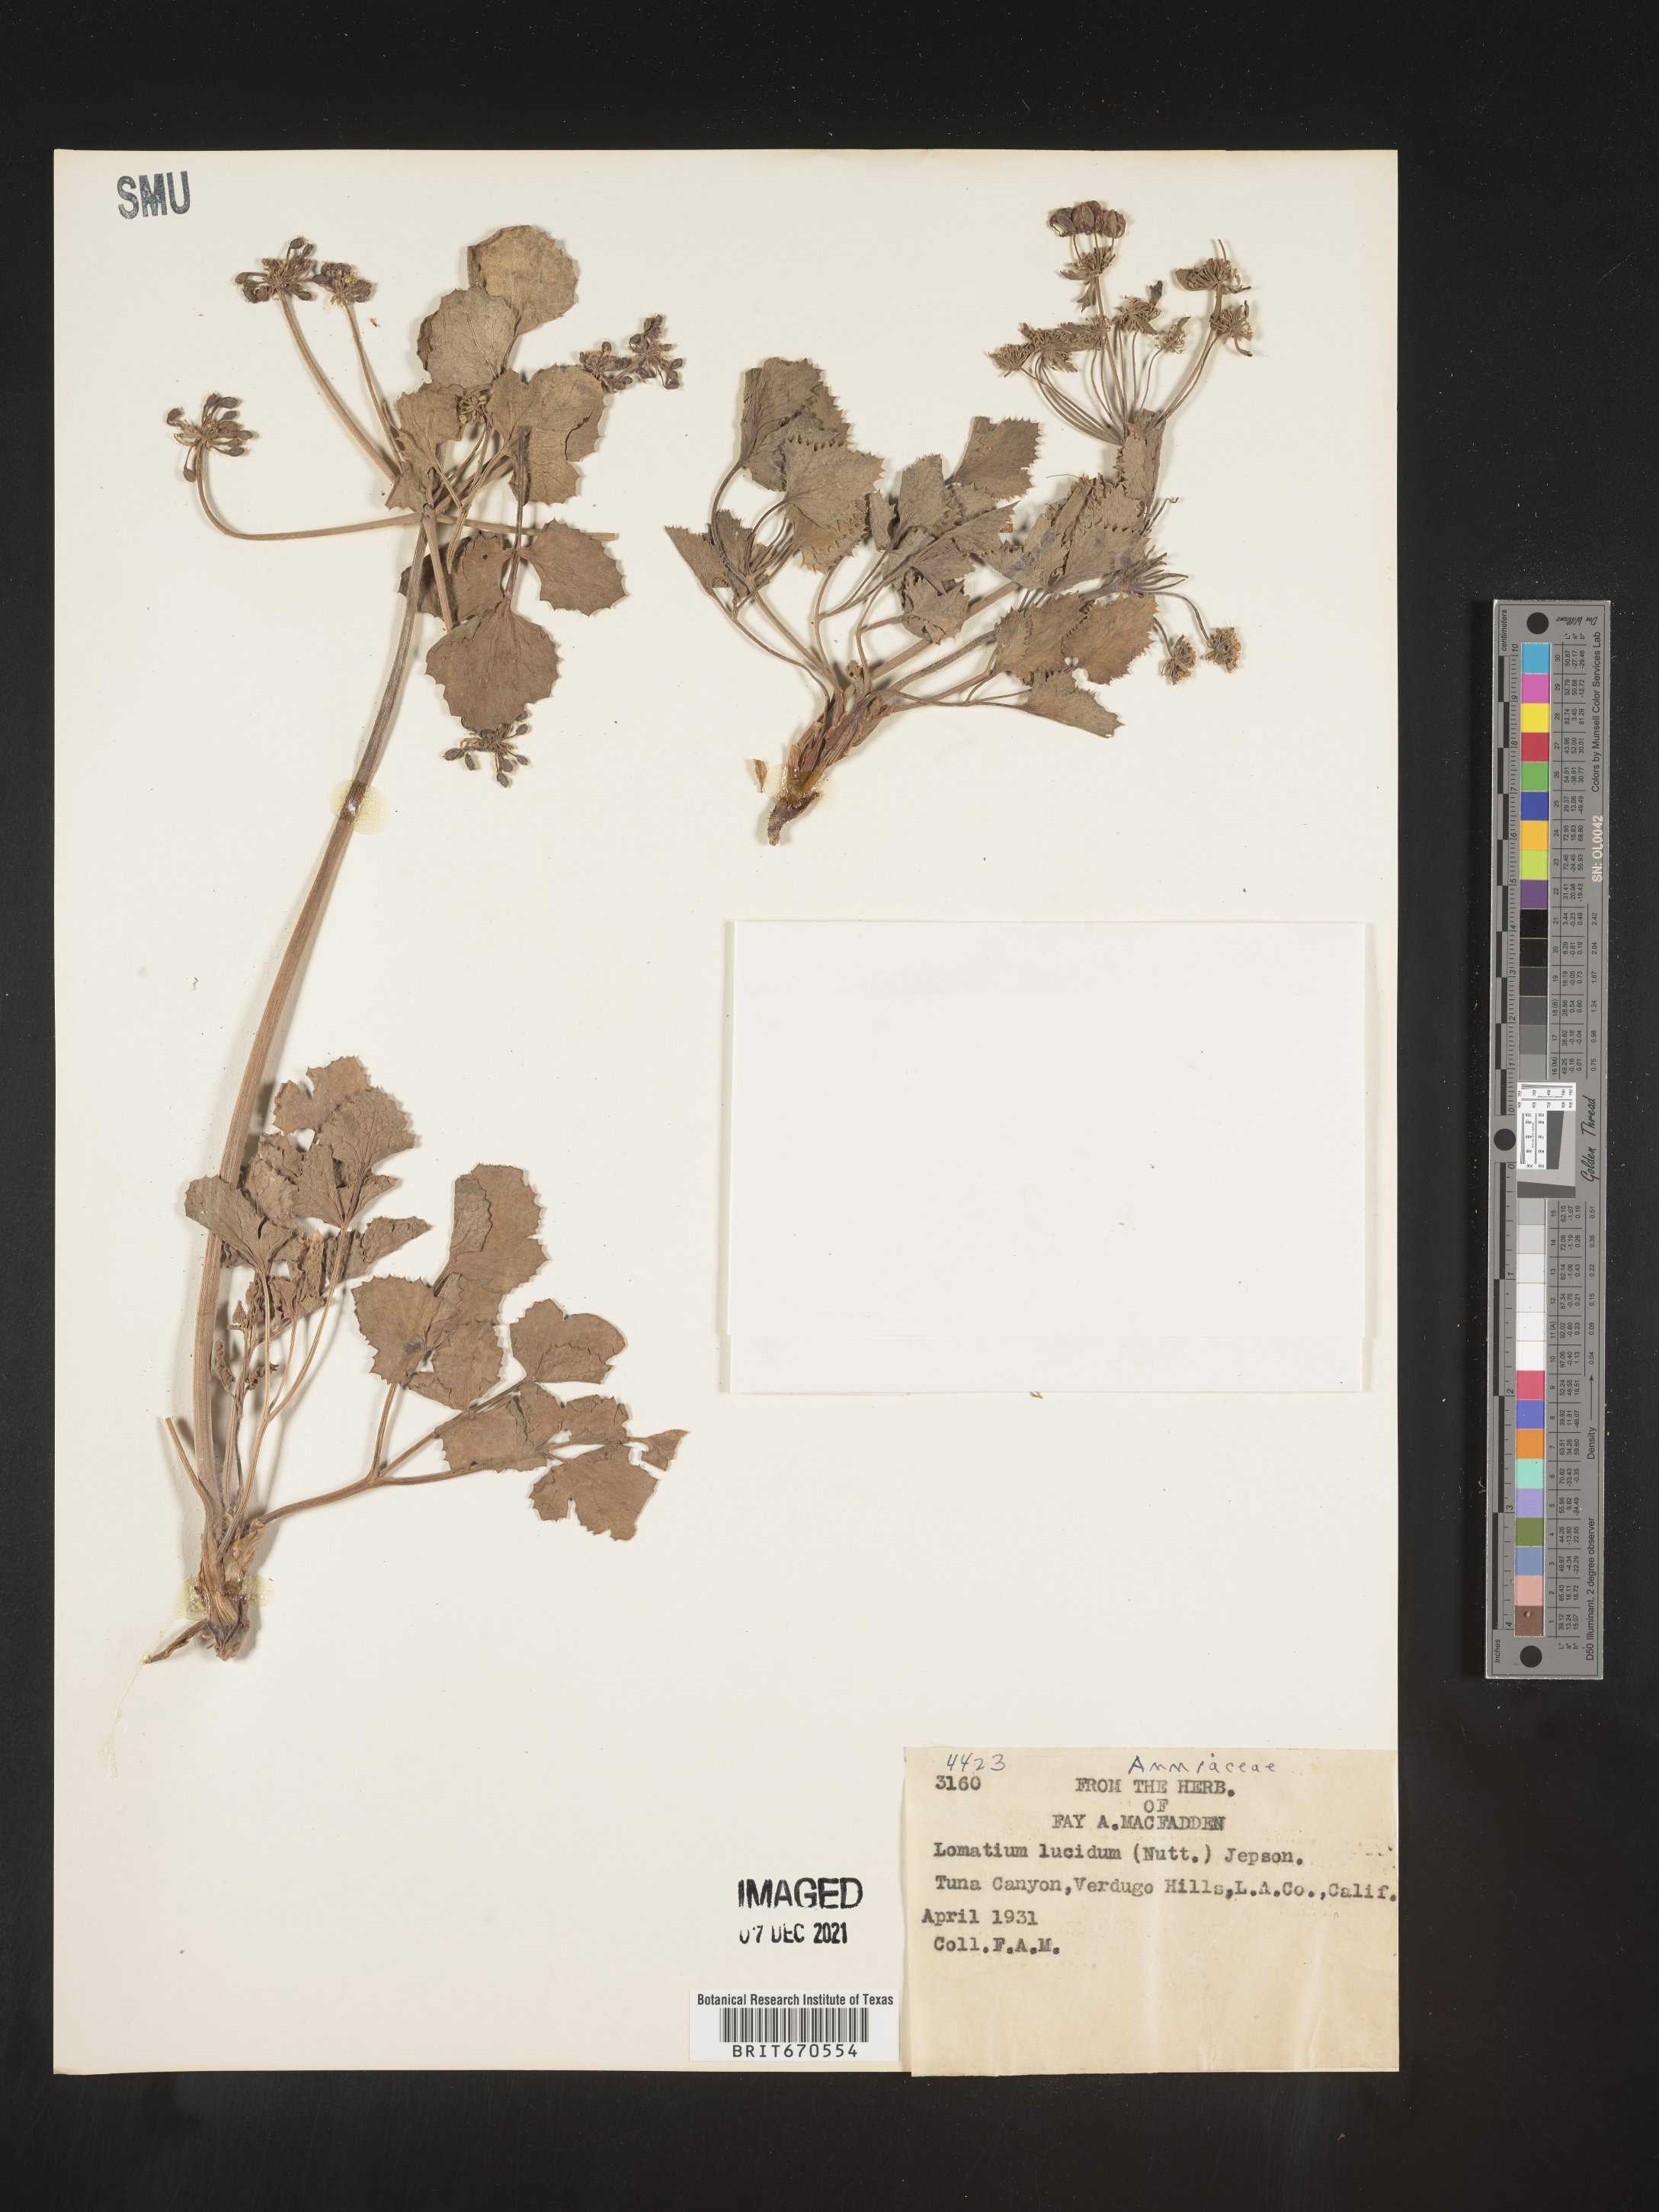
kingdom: Plantae
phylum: Tracheophyta
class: Magnoliopsida
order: Apiales
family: Apiaceae
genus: Lomatium
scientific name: Lomatium lucidum
